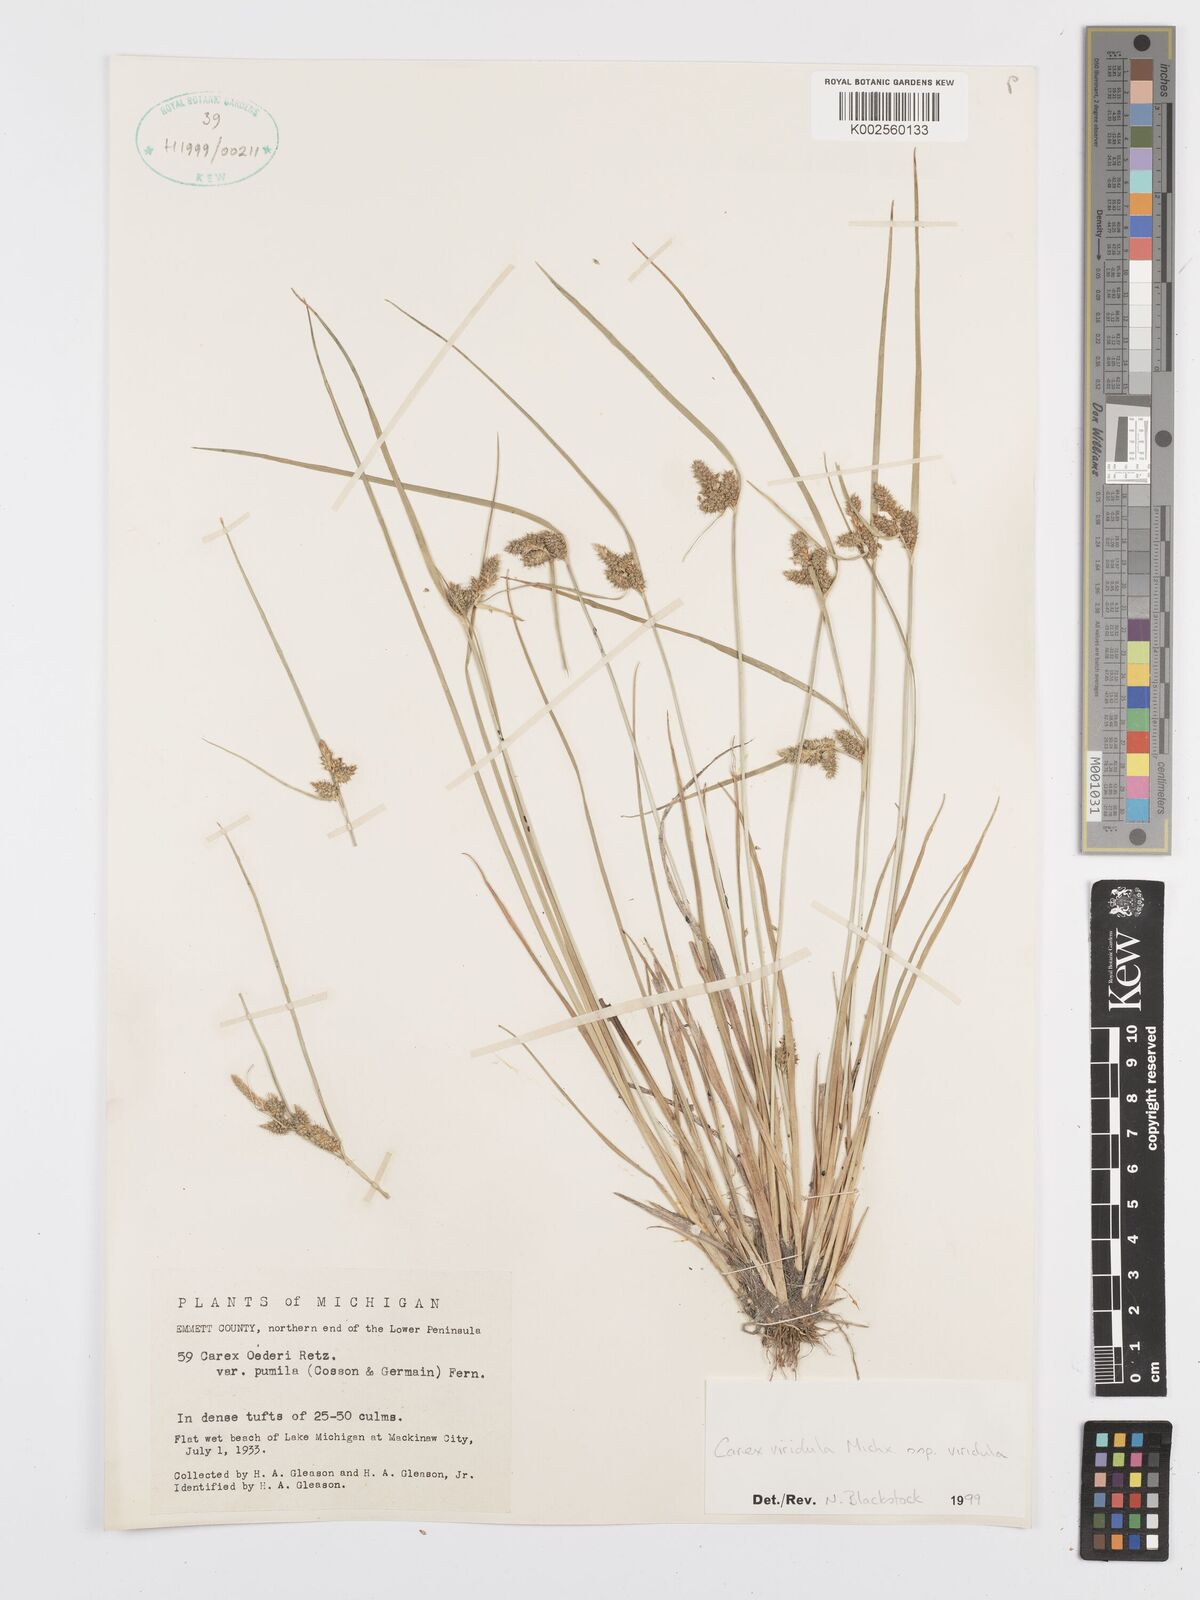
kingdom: Plantae
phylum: Tracheophyta
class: Liliopsida
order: Poales
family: Cyperaceae
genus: Carex
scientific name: Carex oederi
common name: Common & small-fruited yellow-sedge
